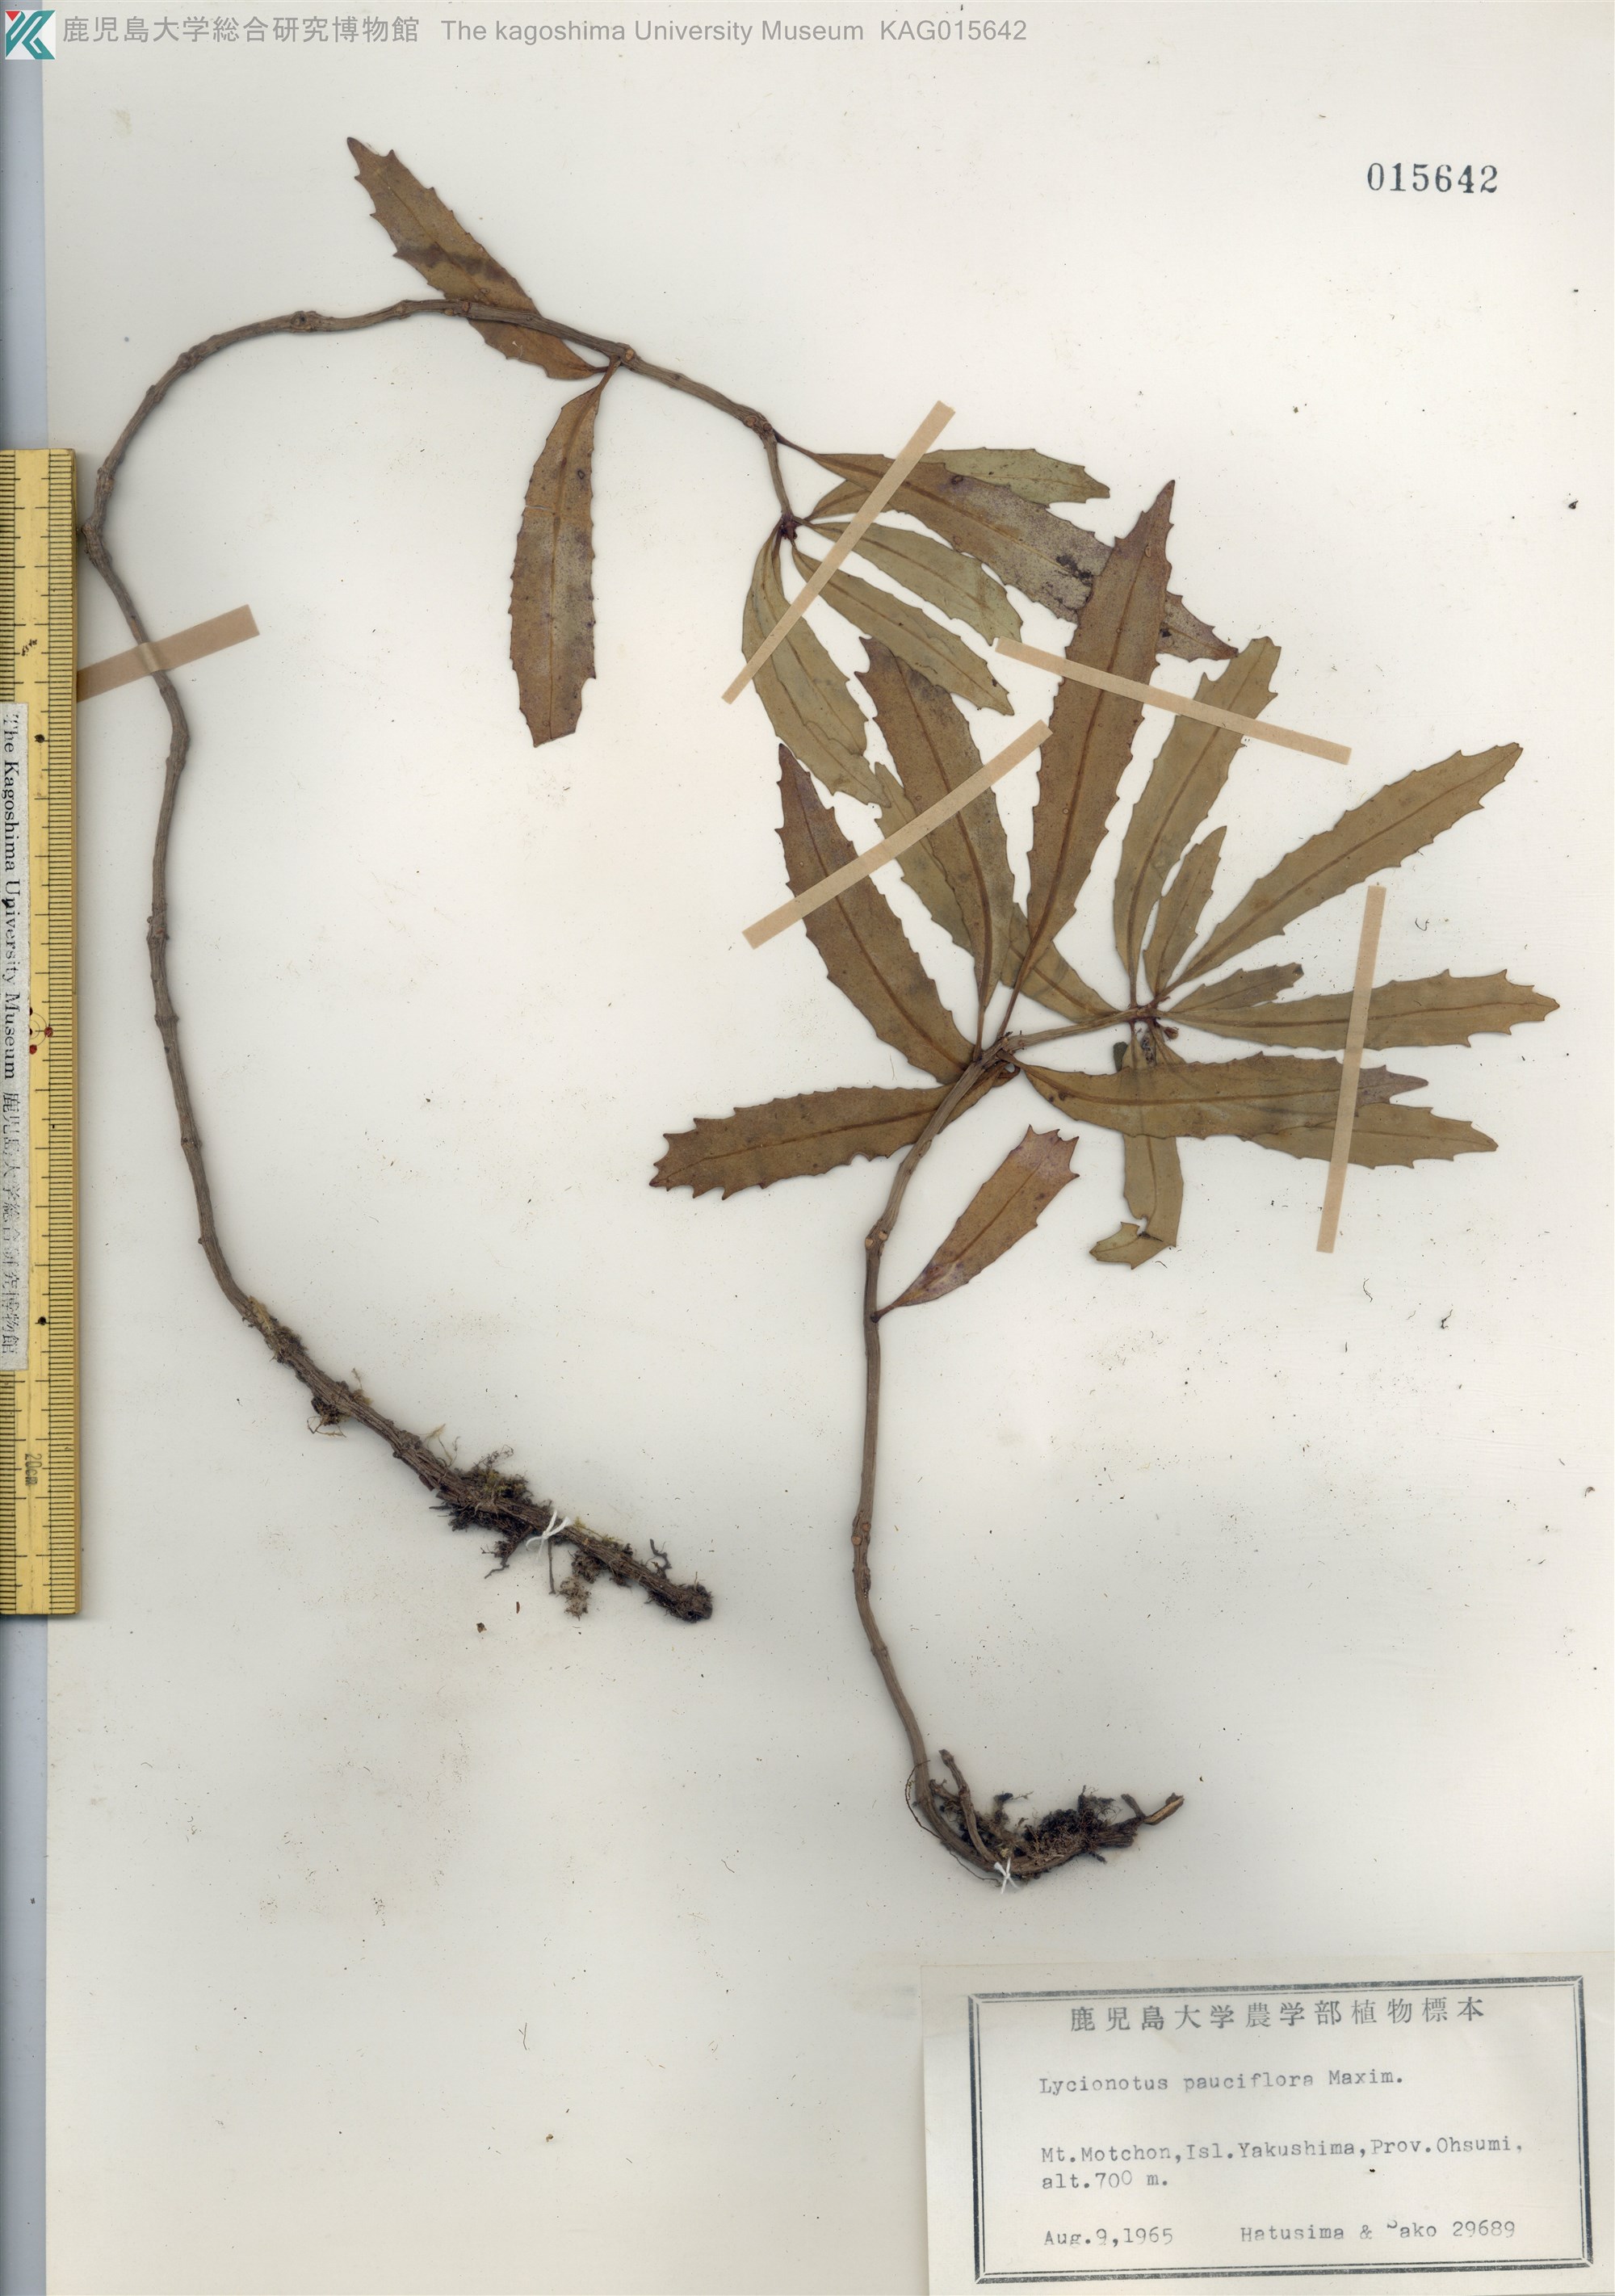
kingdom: Plantae
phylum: Tracheophyta
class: Magnoliopsida
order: Lamiales
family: Gesneriaceae
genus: Lysionotus
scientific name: Lysionotus pauciflorus
